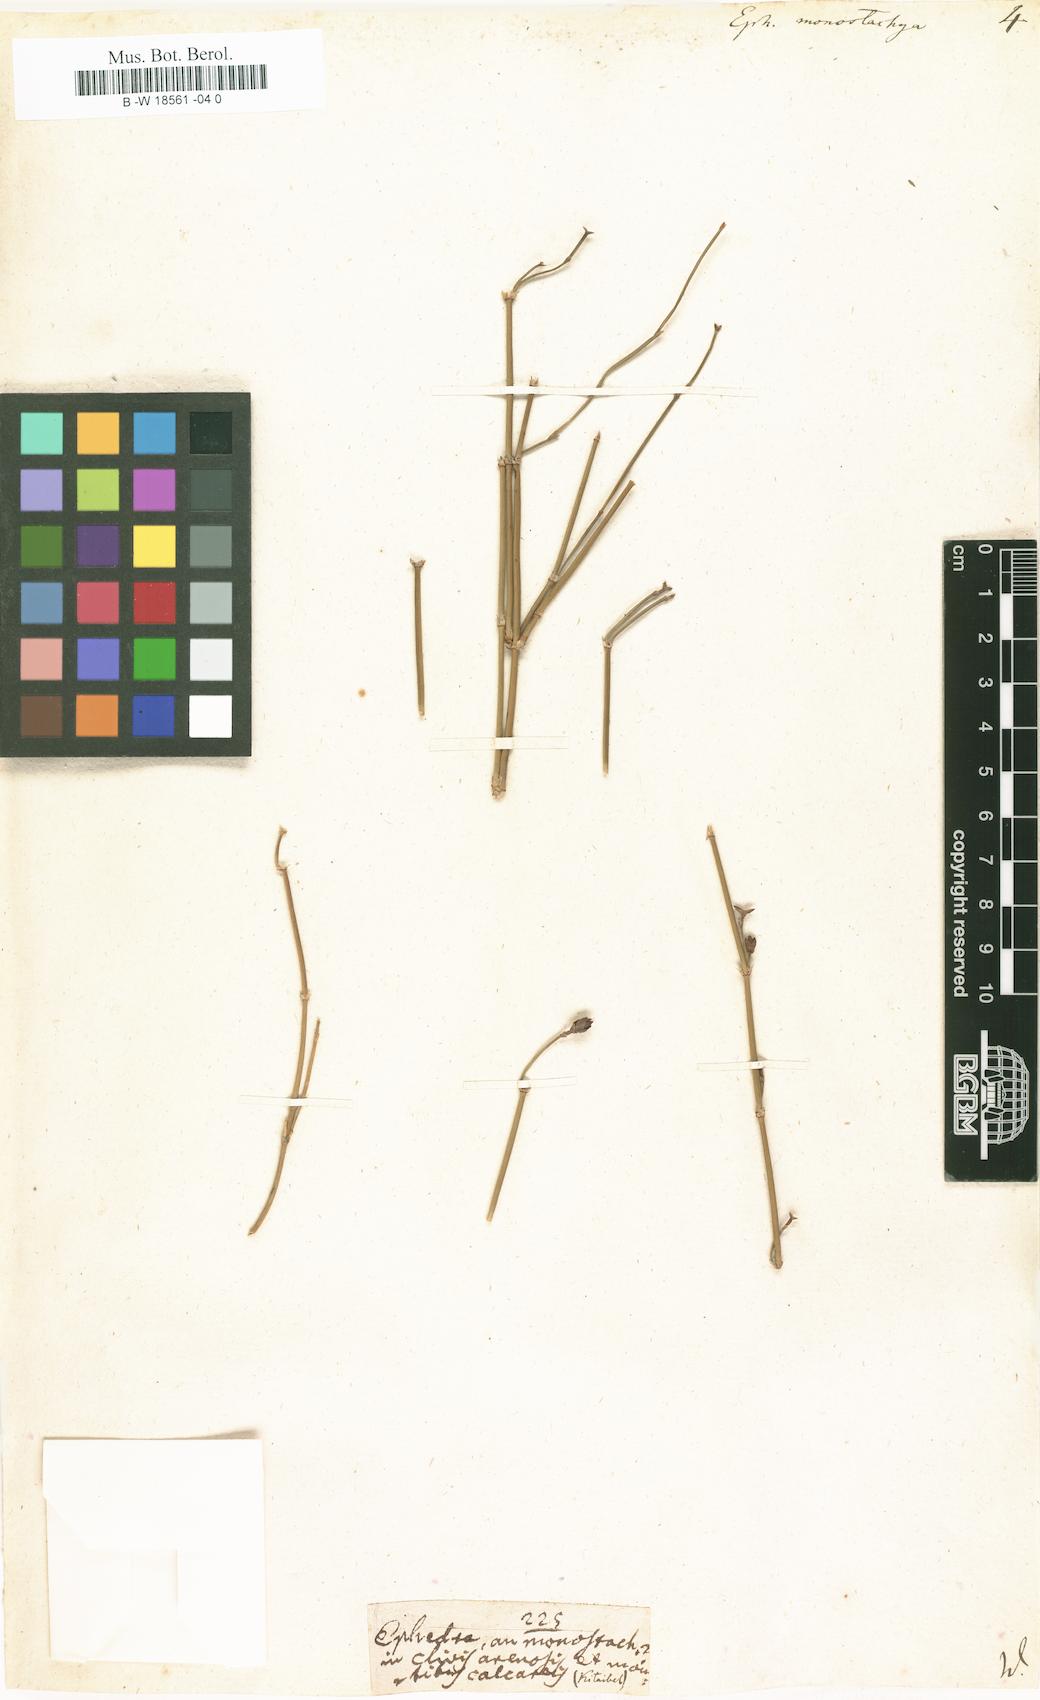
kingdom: Plantae
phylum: Tracheophyta
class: Gnetopsida
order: Ephedrales
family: Ephedraceae
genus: Ephedra
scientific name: Ephedra monostachya
